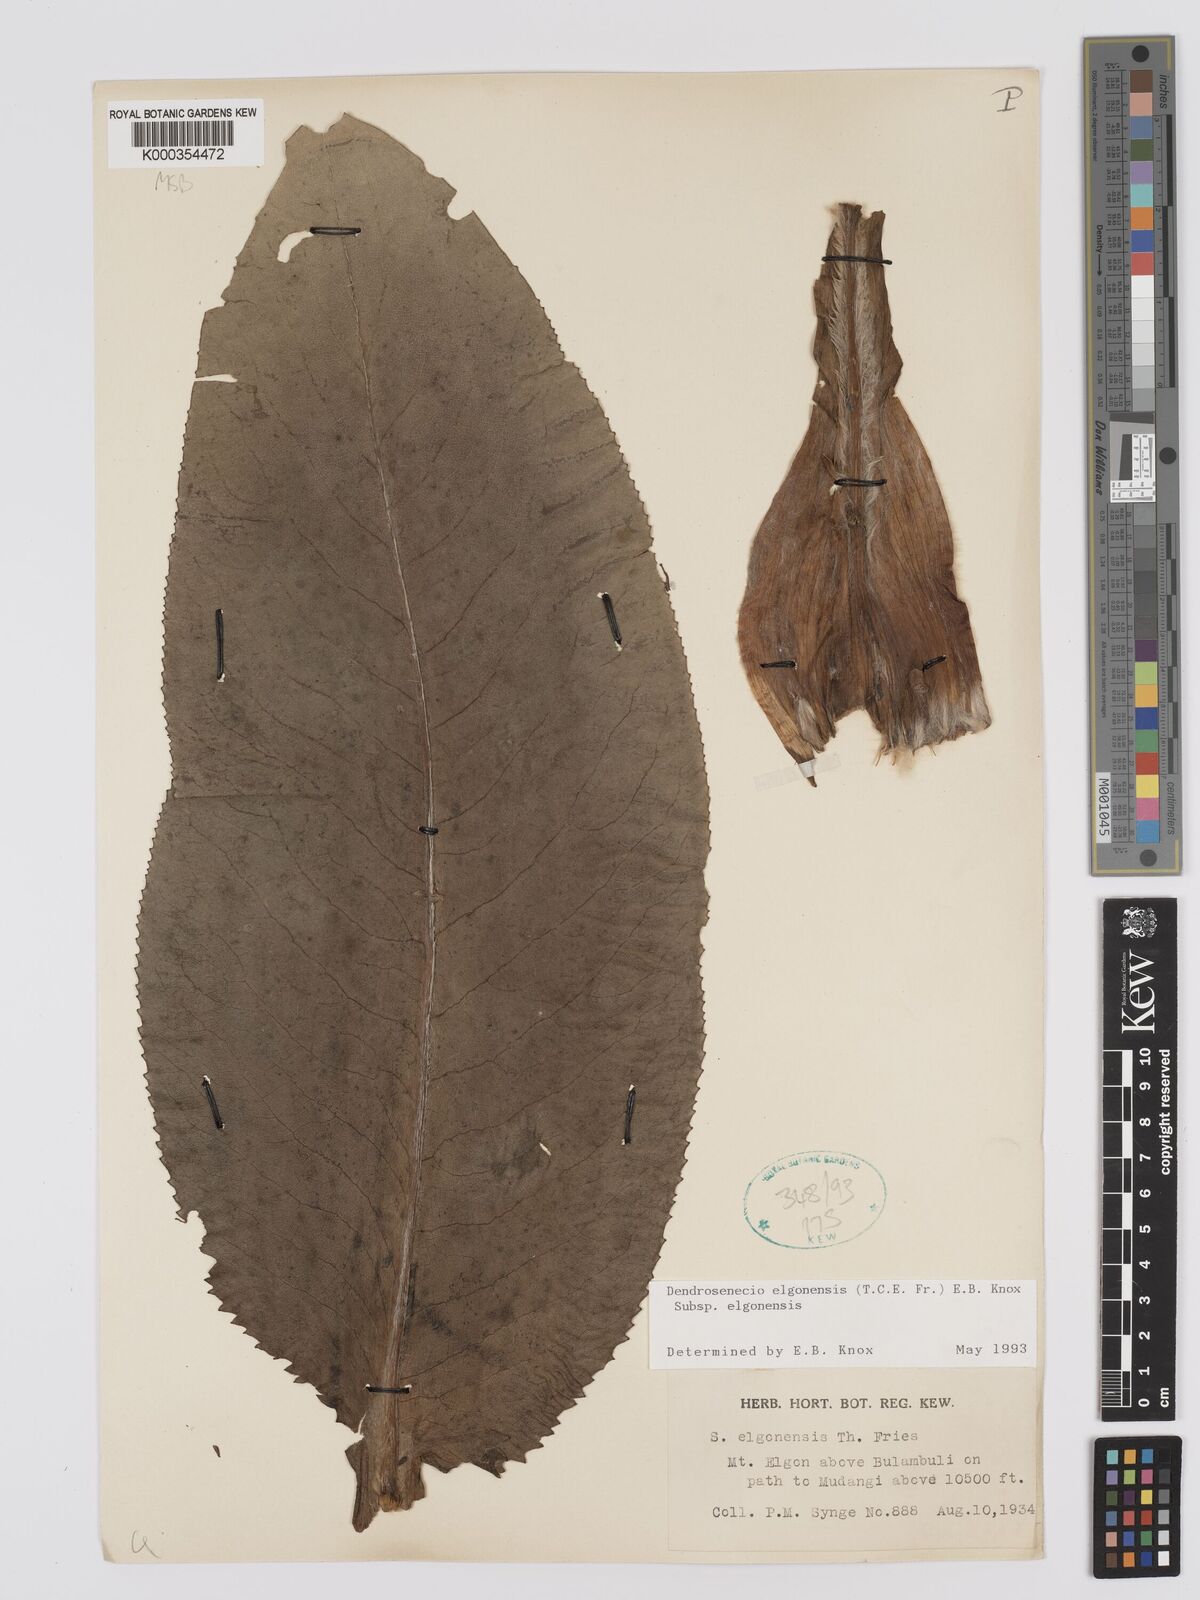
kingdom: Plantae
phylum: Tracheophyta
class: Magnoliopsida
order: Asterales
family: Asteraceae
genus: Dendrosenecio
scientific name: Dendrosenecio elgonensis
